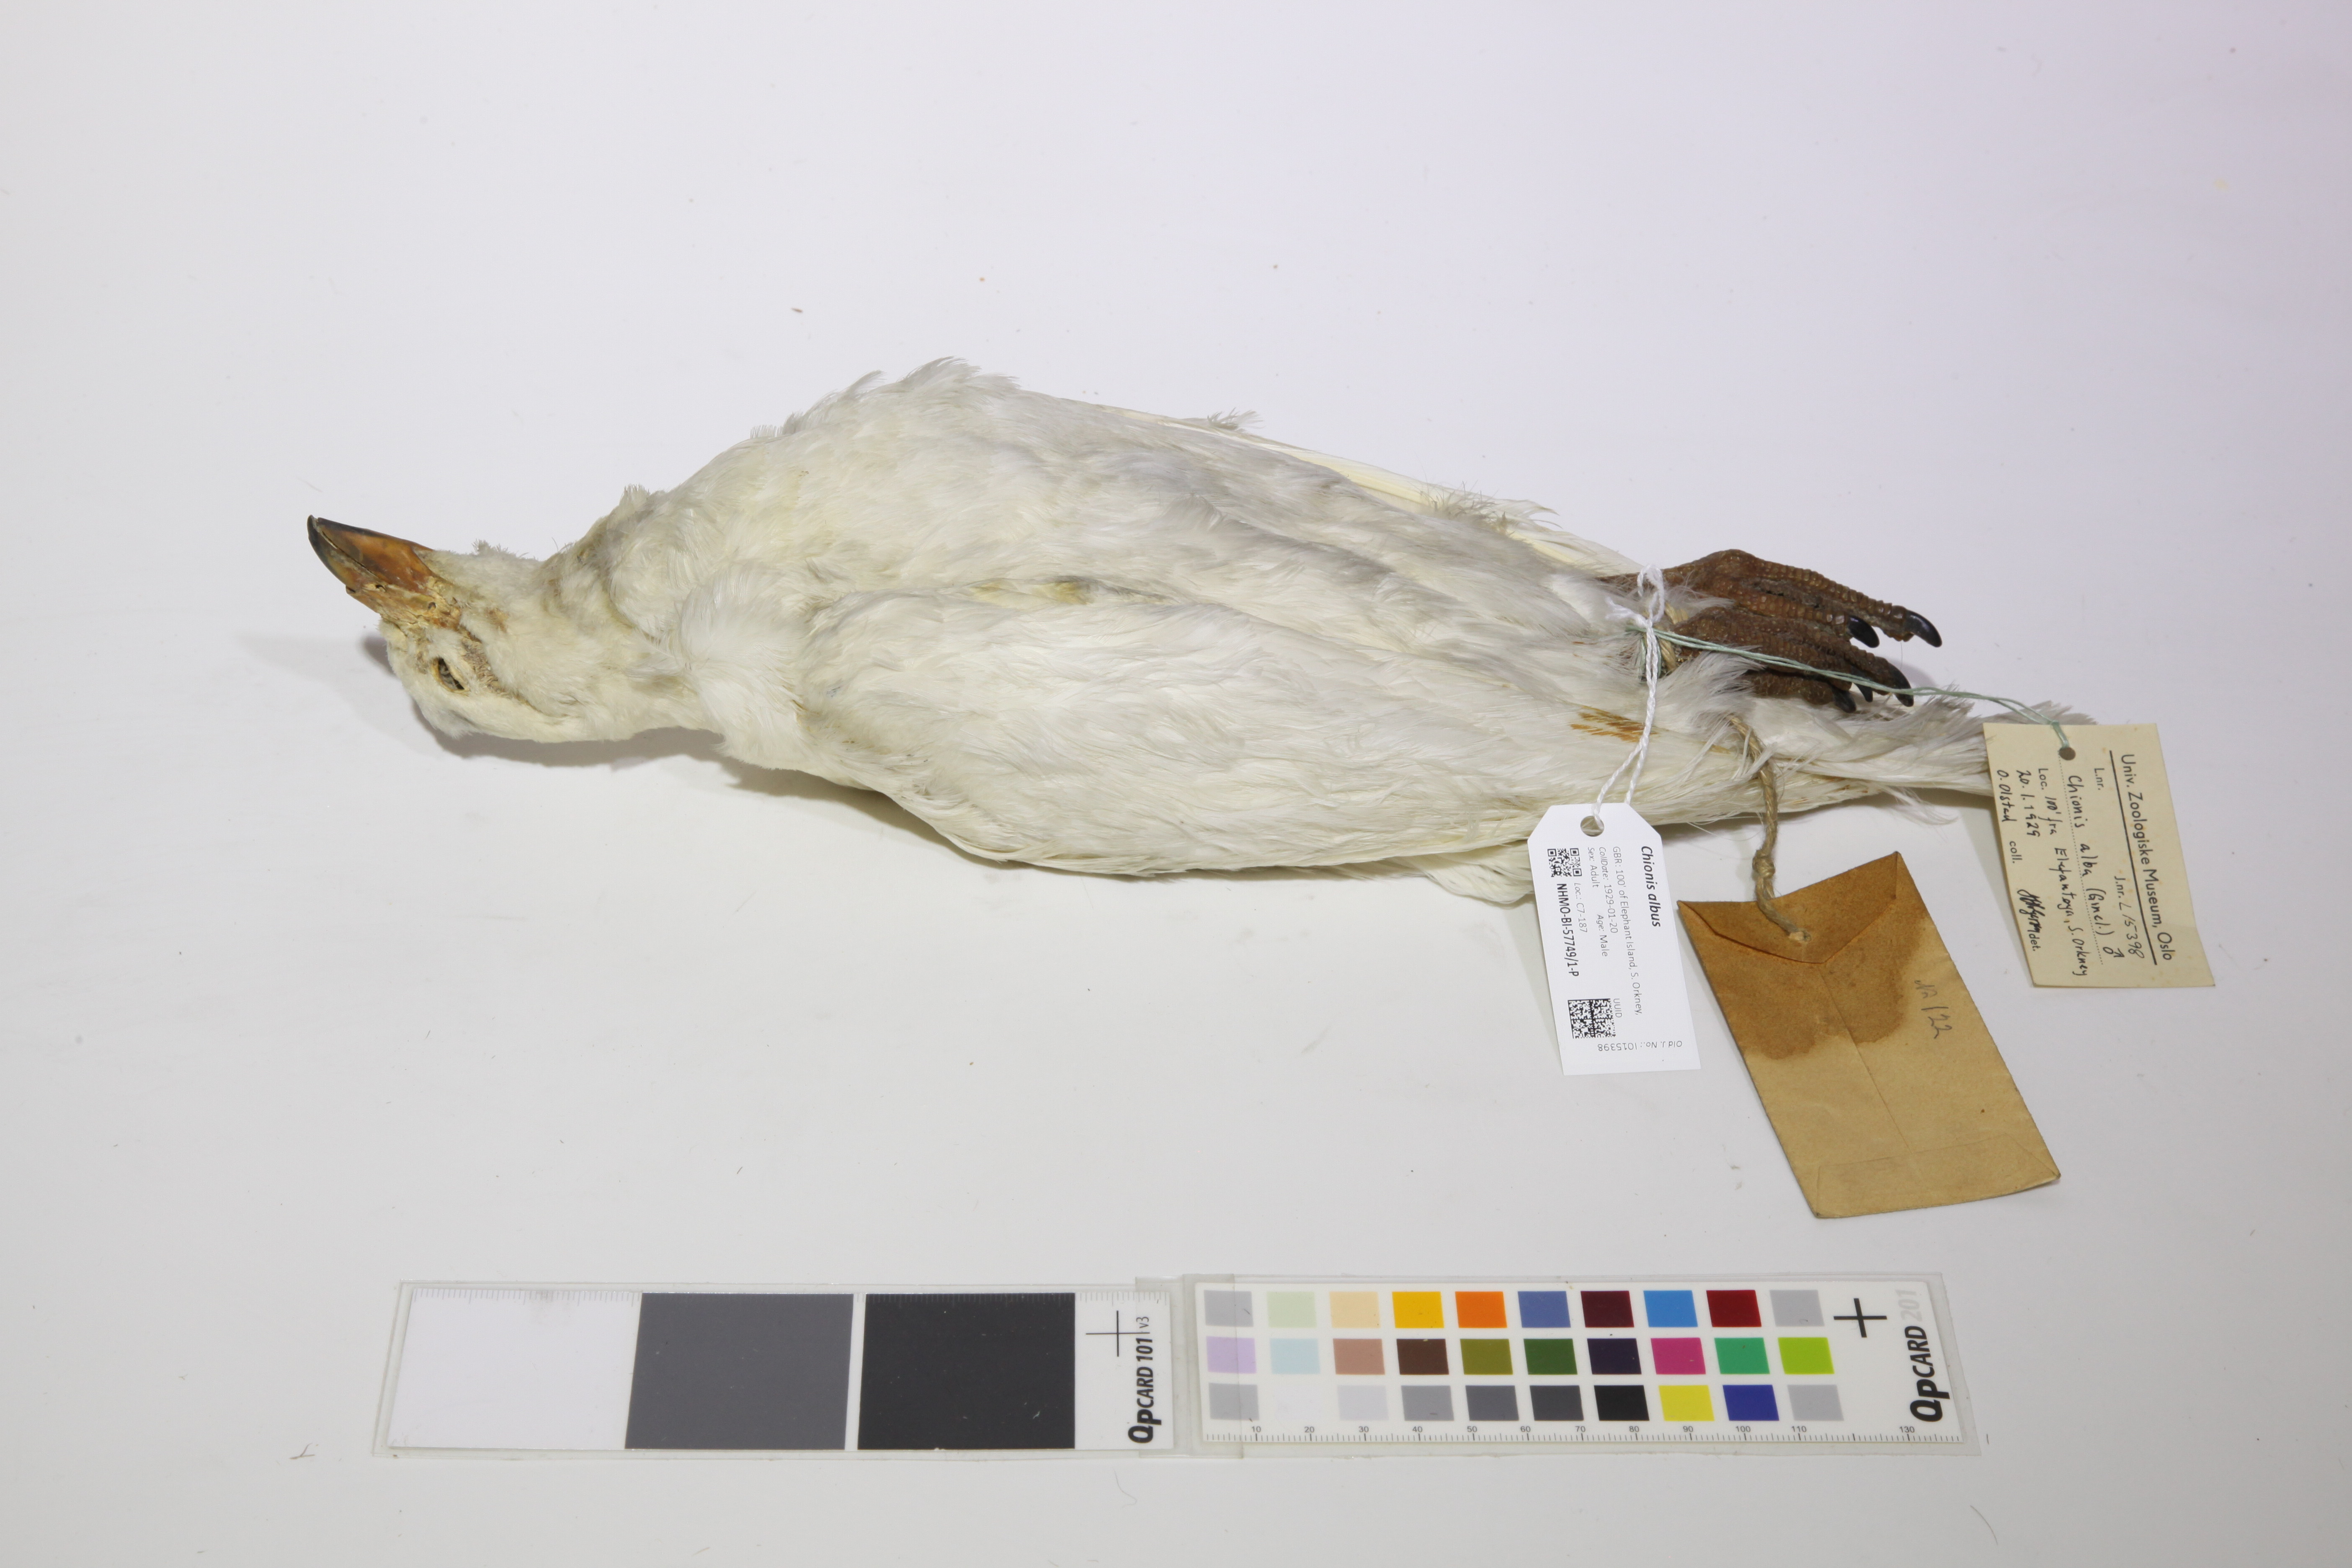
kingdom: Animalia
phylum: Chordata
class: Aves
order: Charadriiformes
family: Chionidae
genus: Chionis
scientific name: Chionis albus
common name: Snowy sheathbill
